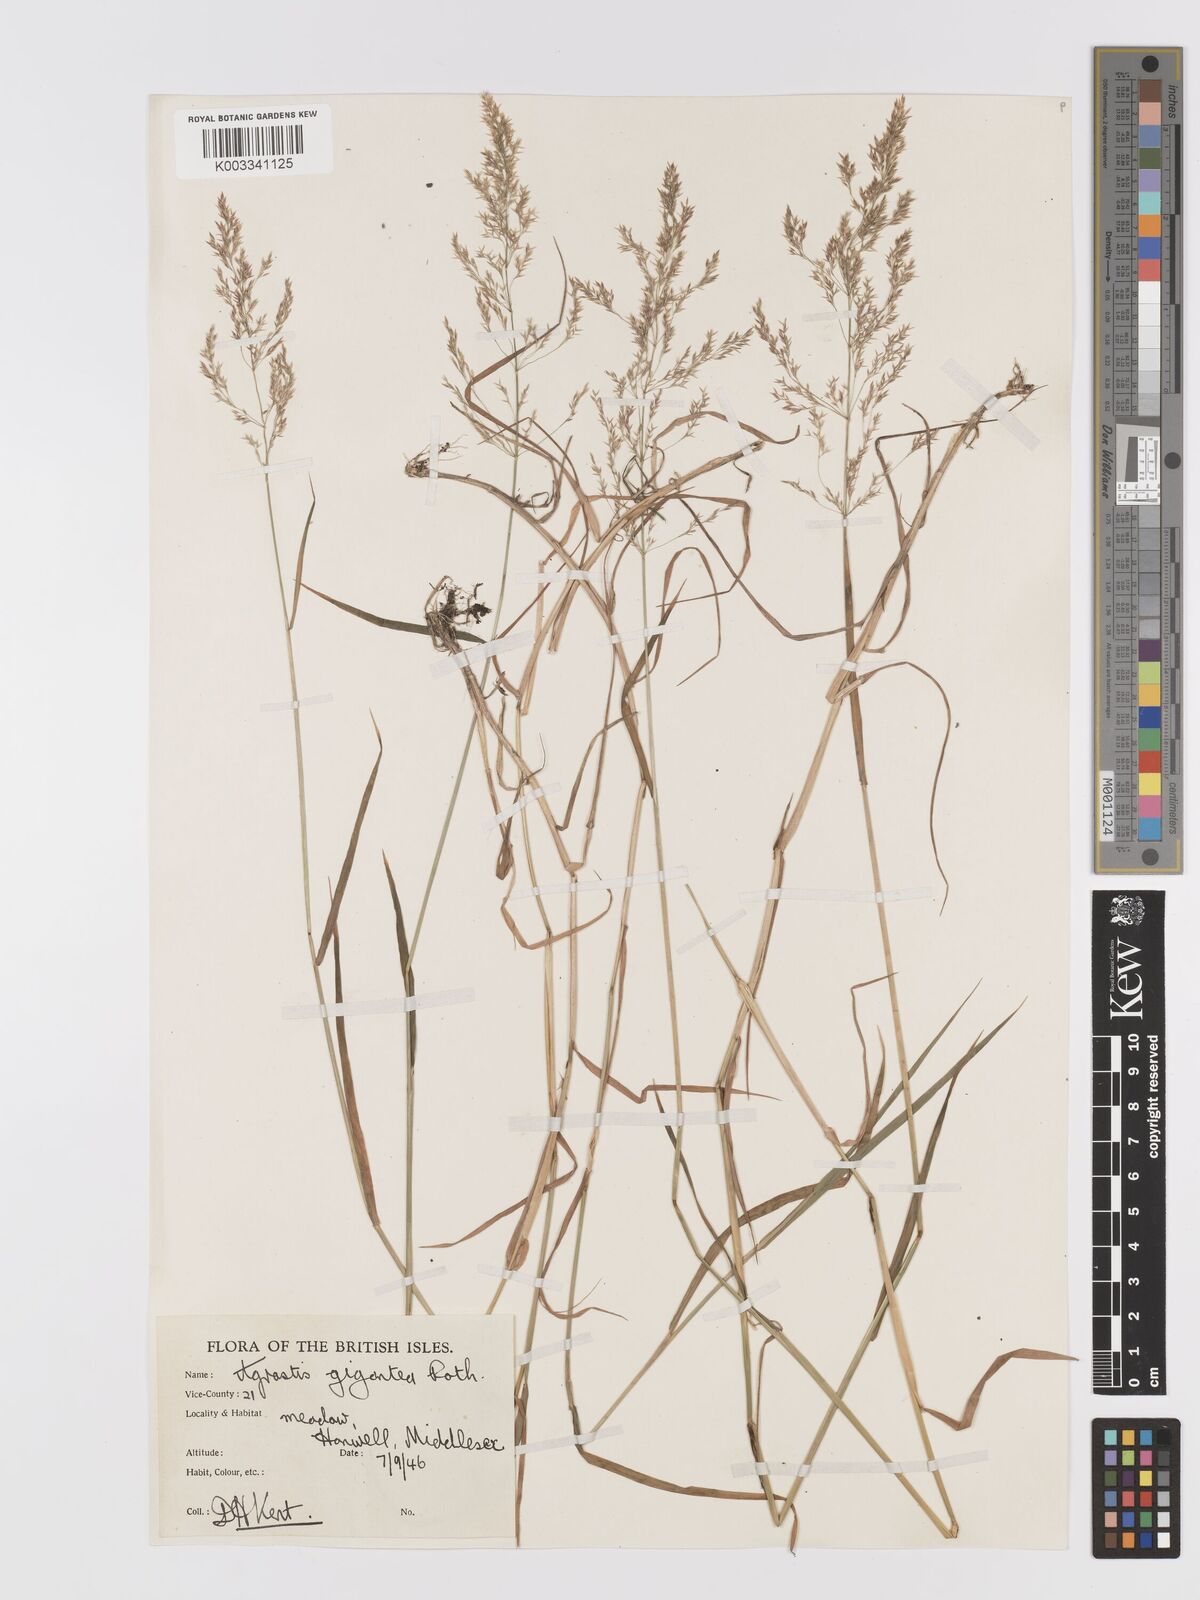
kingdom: Plantae
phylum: Tracheophyta
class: Liliopsida
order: Poales
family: Poaceae
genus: Agrostis
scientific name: Agrostis gigantea
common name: Black bent
